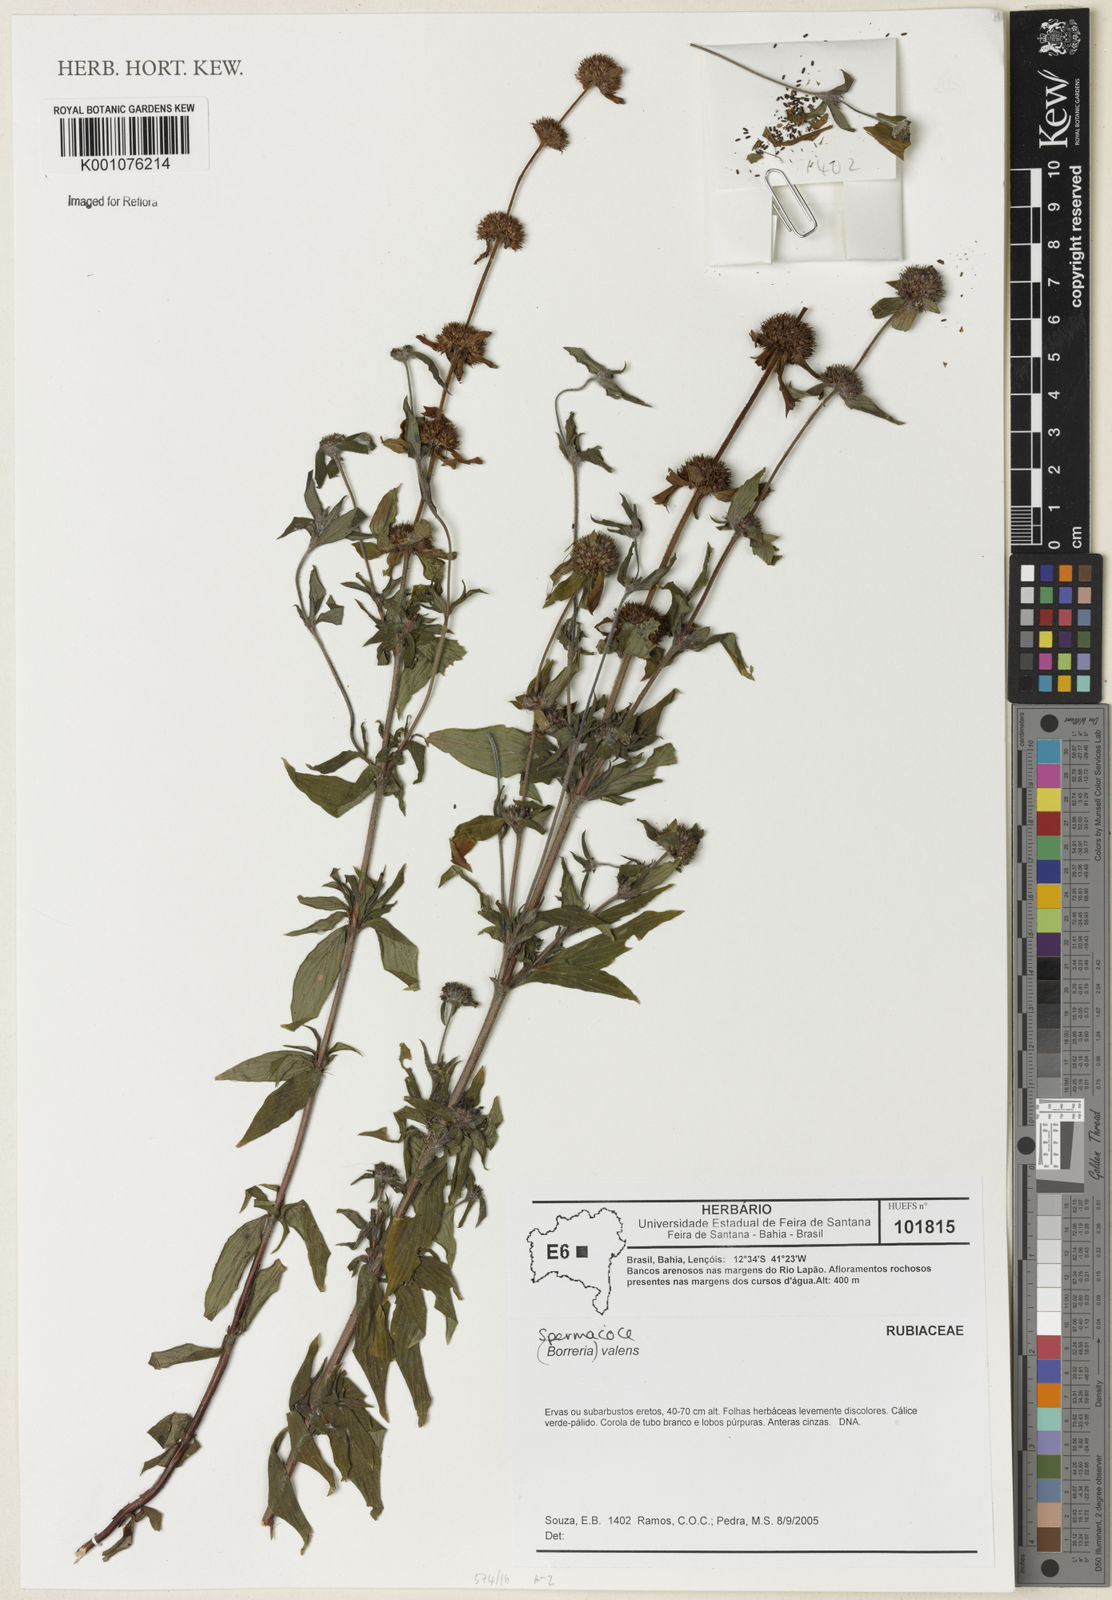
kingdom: Plantae
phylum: Tracheophyta
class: Magnoliopsida
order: Gentianales
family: Rubiaceae
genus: Spermacoce
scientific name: Spermacoce valens
